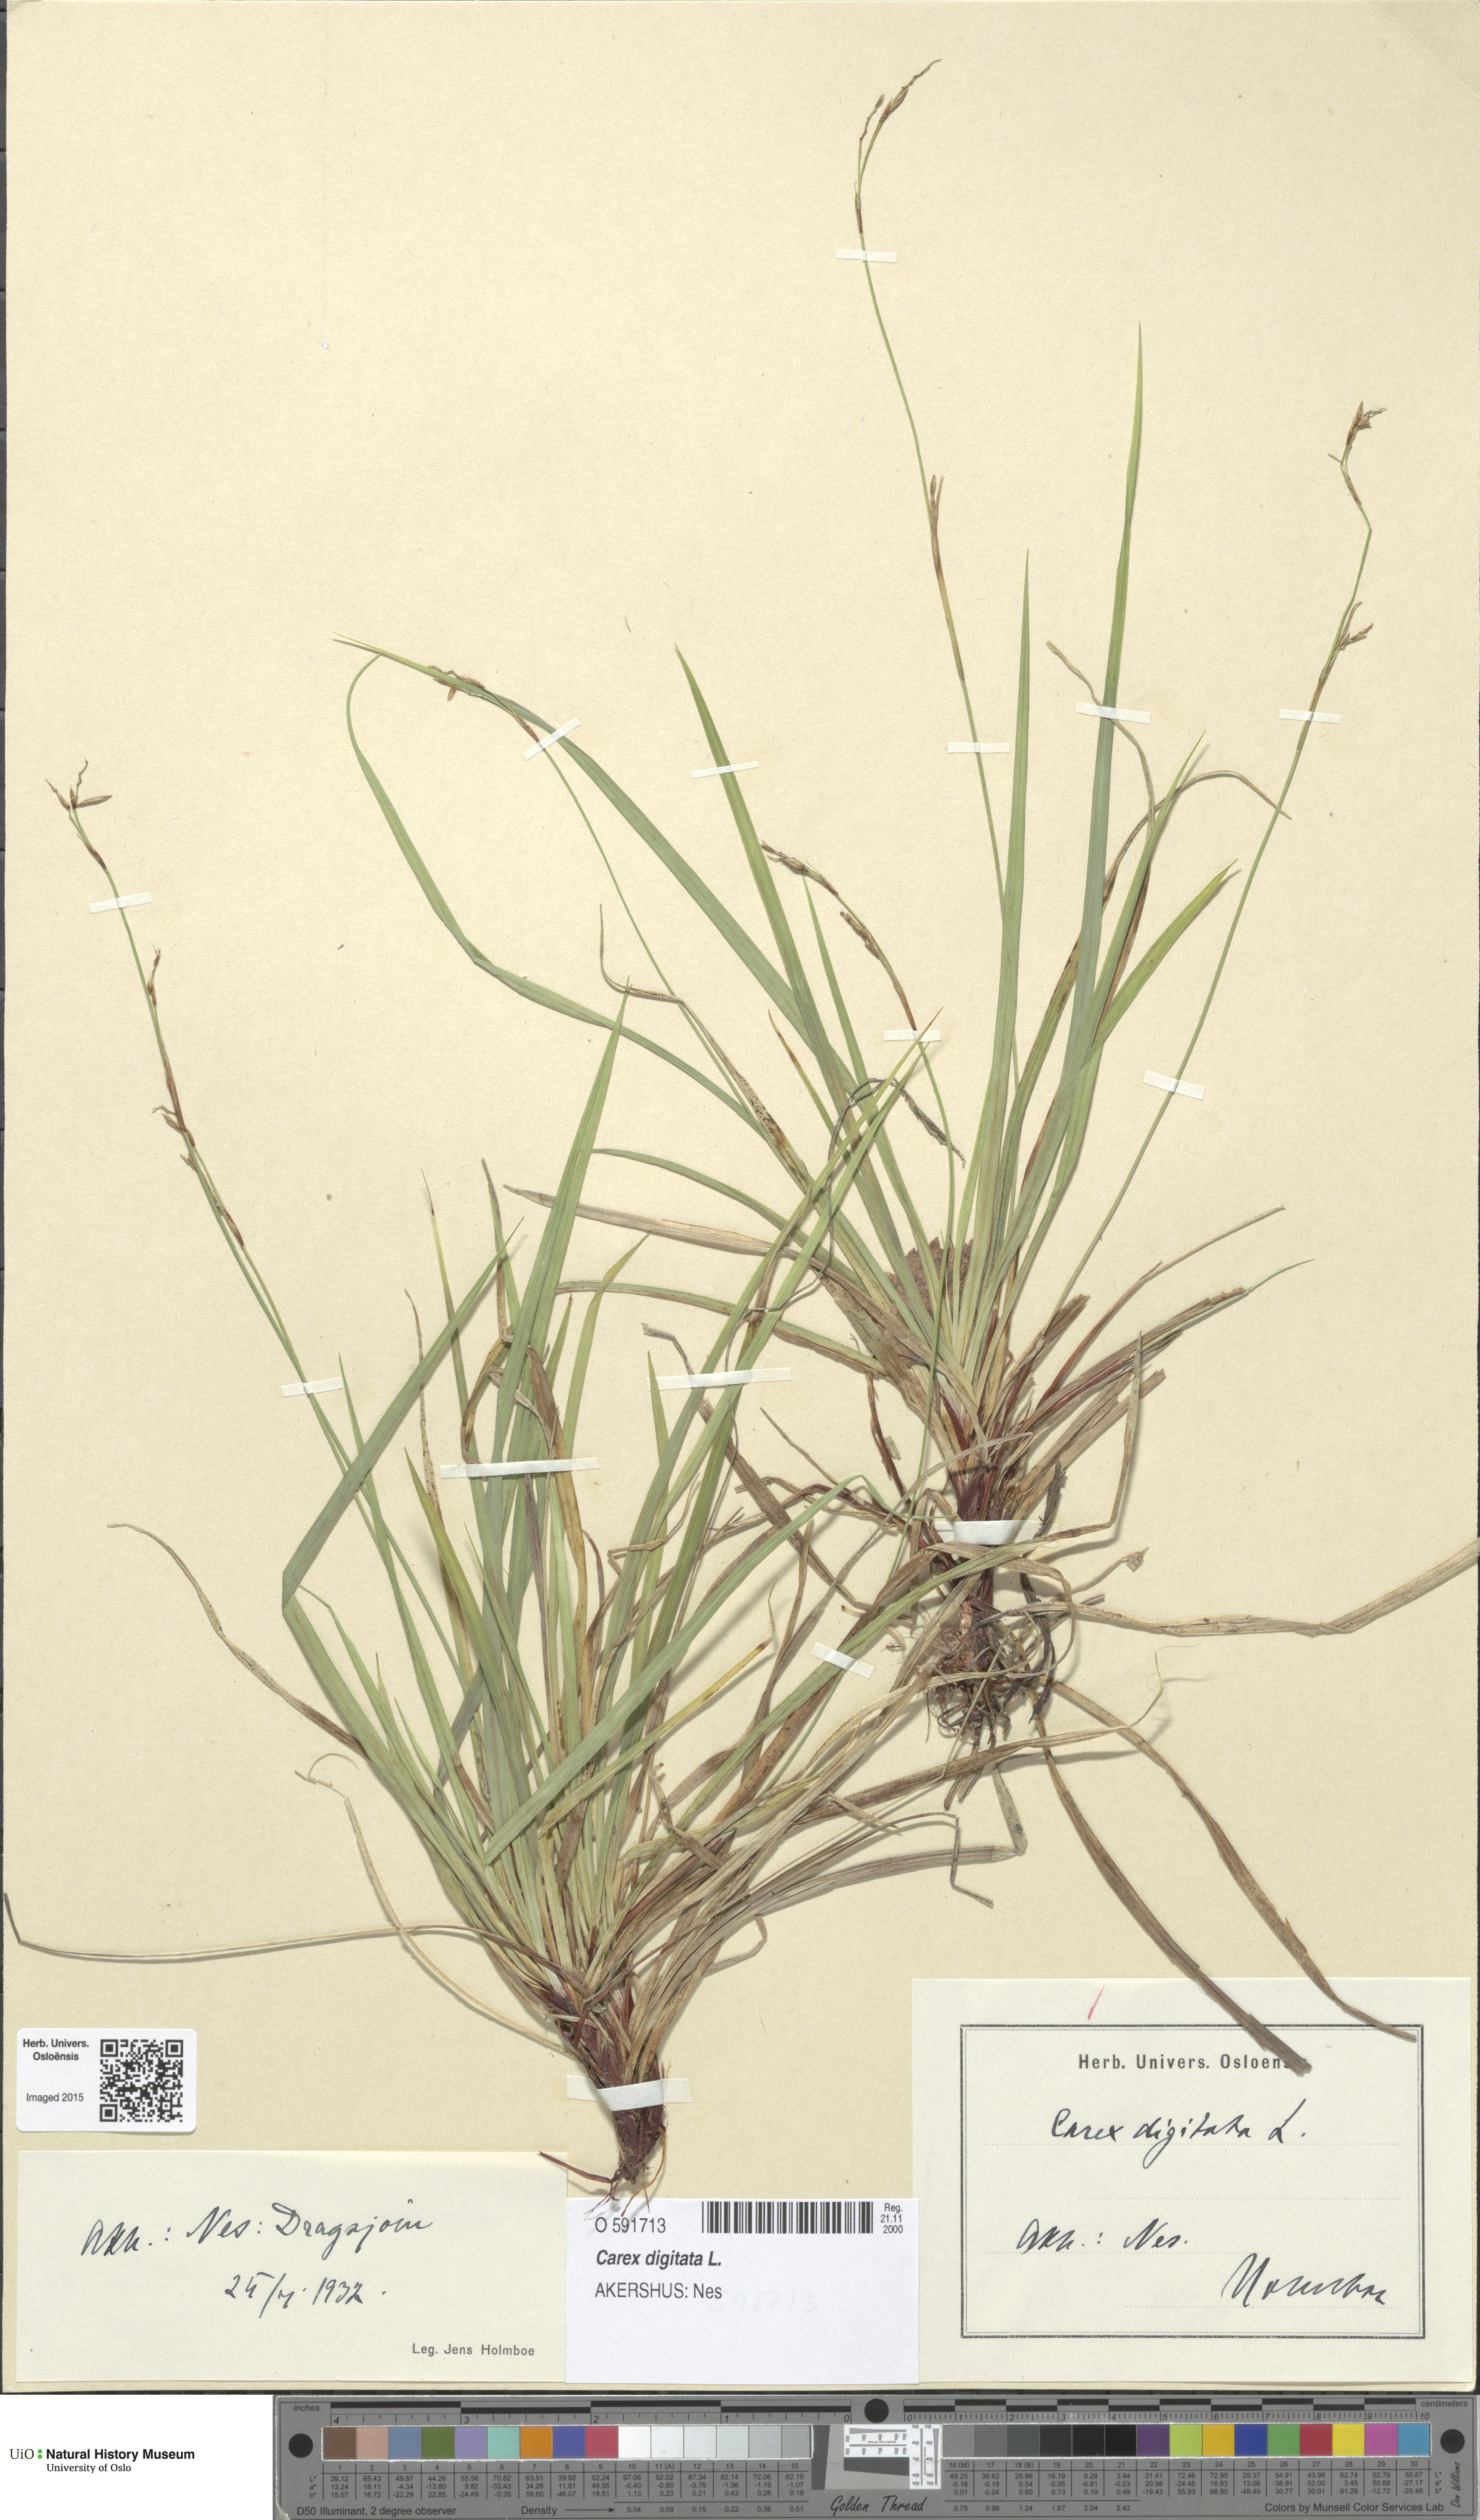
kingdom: Plantae
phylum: Tracheophyta
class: Liliopsida
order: Poales
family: Cyperaceae
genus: Carex
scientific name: Carex digitata
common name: Fingered sedge
